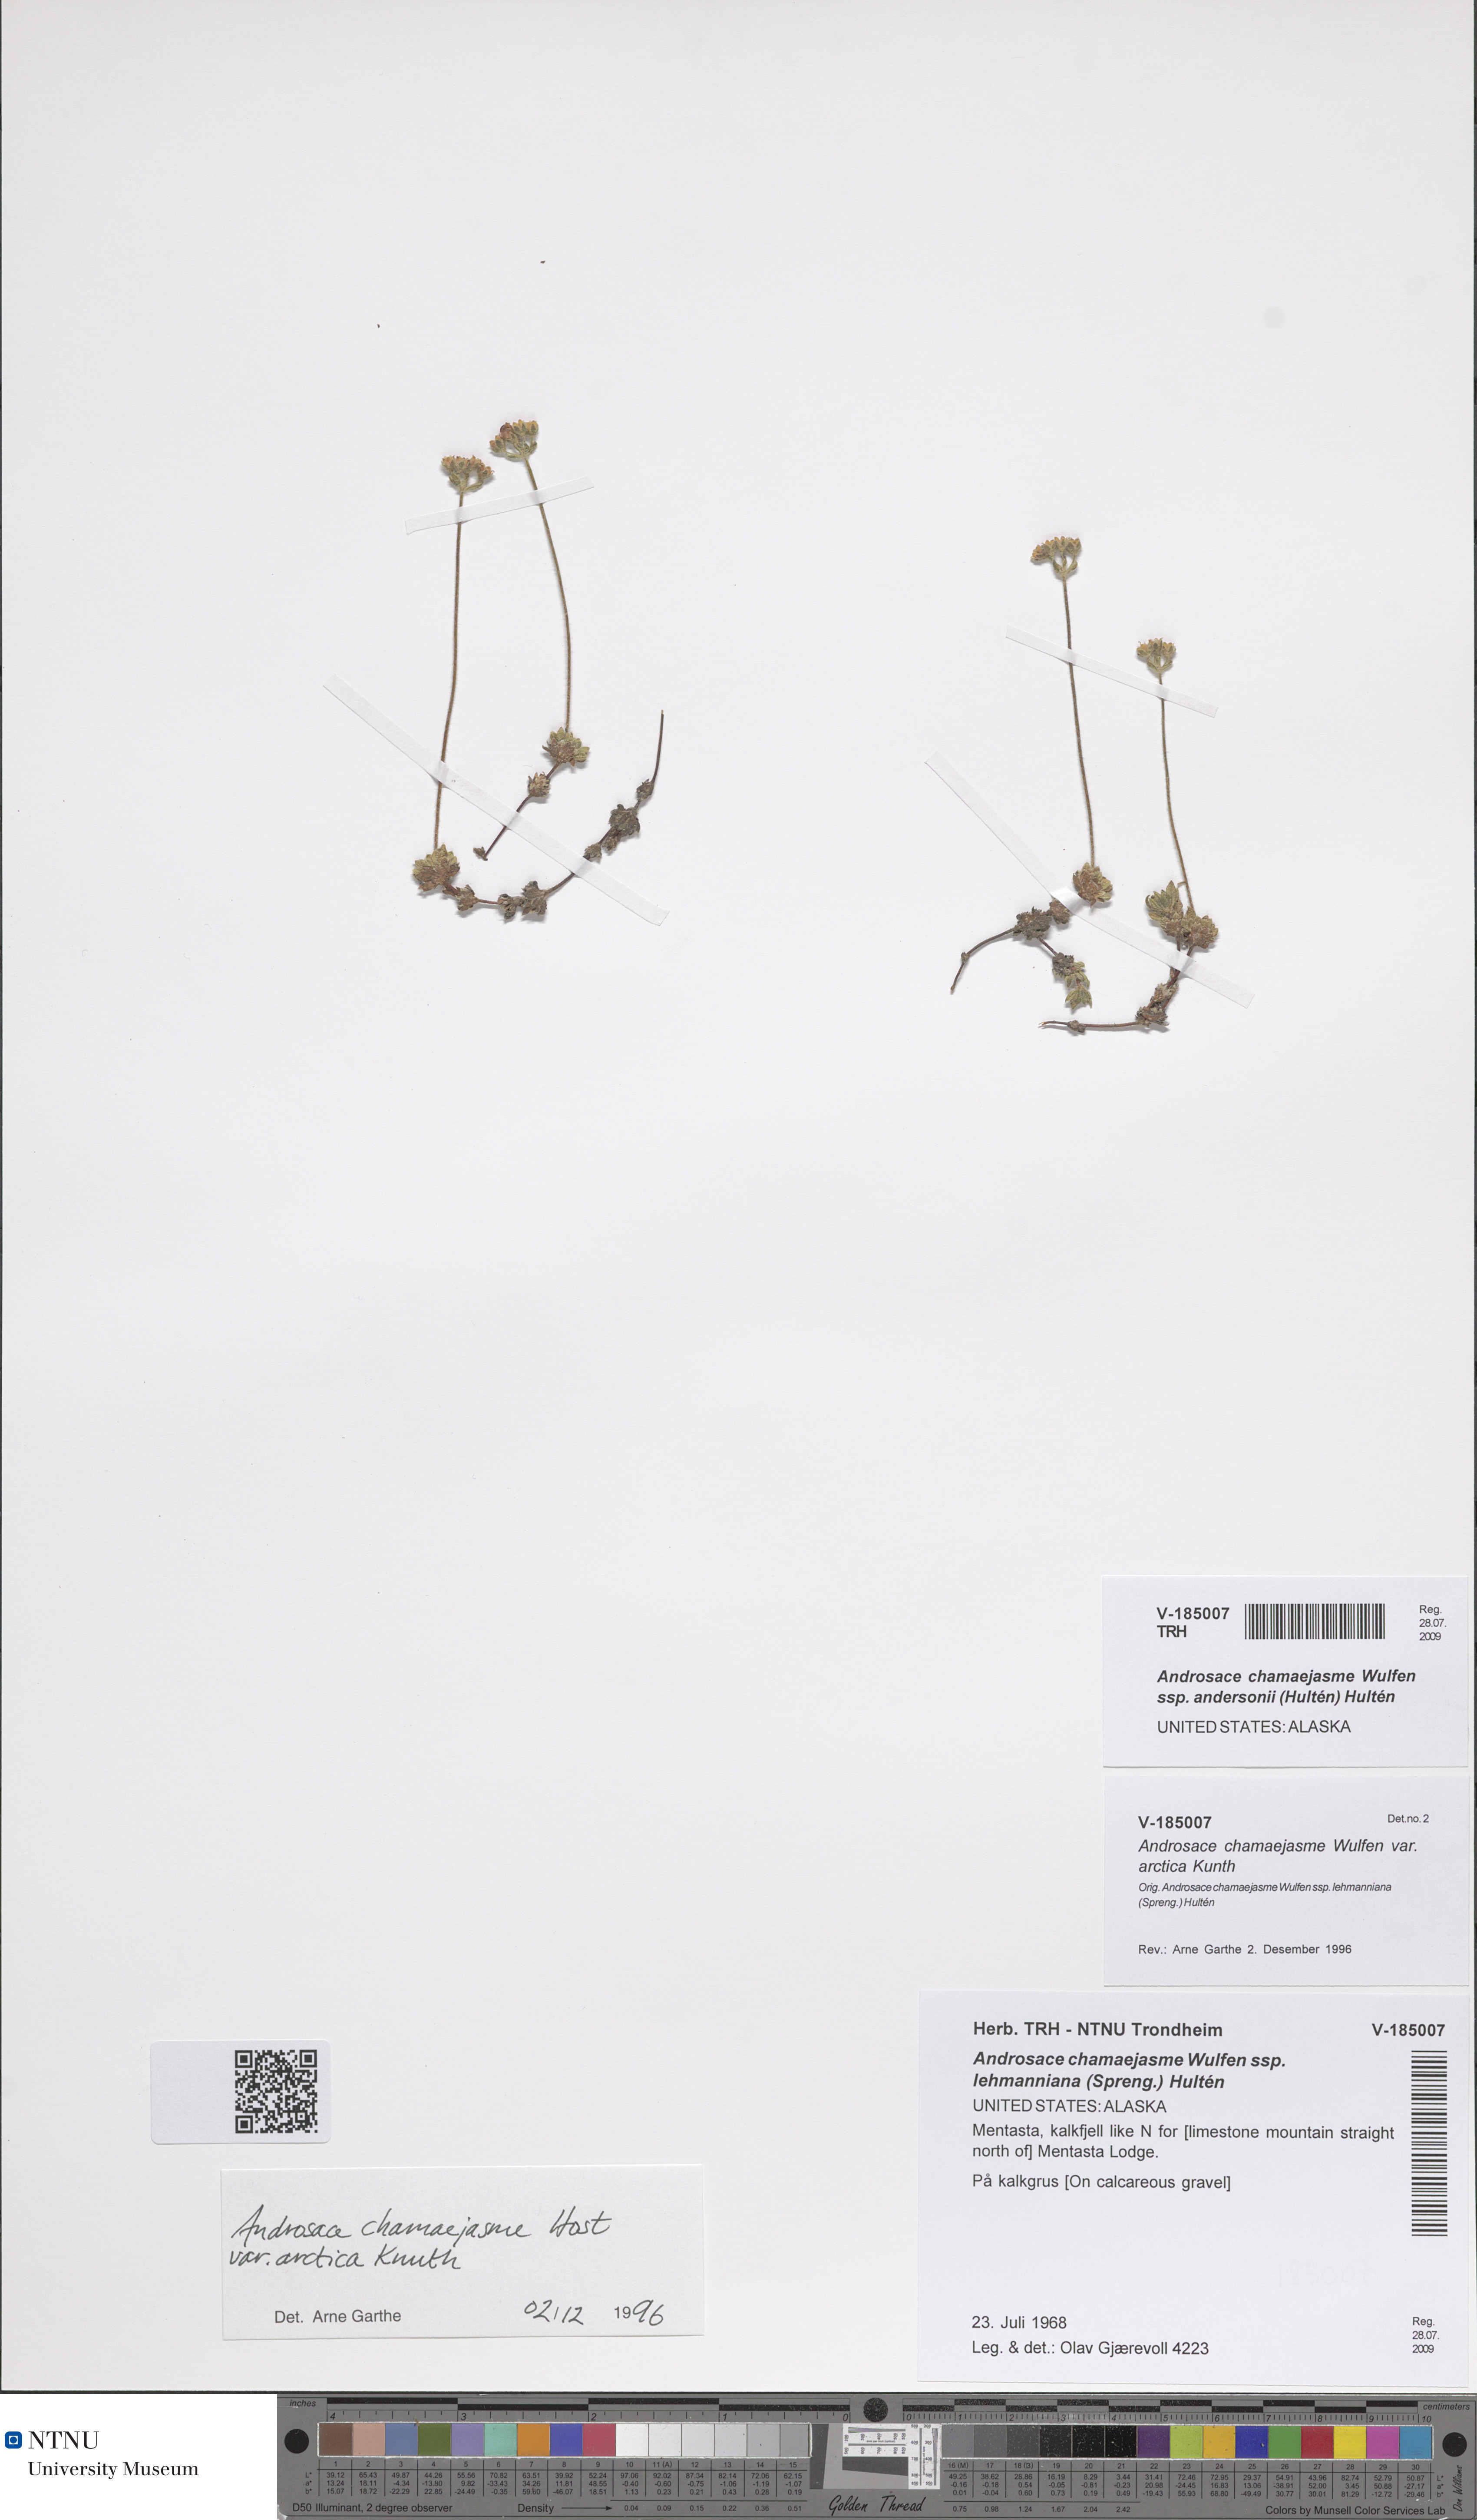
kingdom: Plantae
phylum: Tracheophyta
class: Magnoliopsida
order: Ericales
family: Primulaceae
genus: Androsace
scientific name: Androsace chamaejasme
